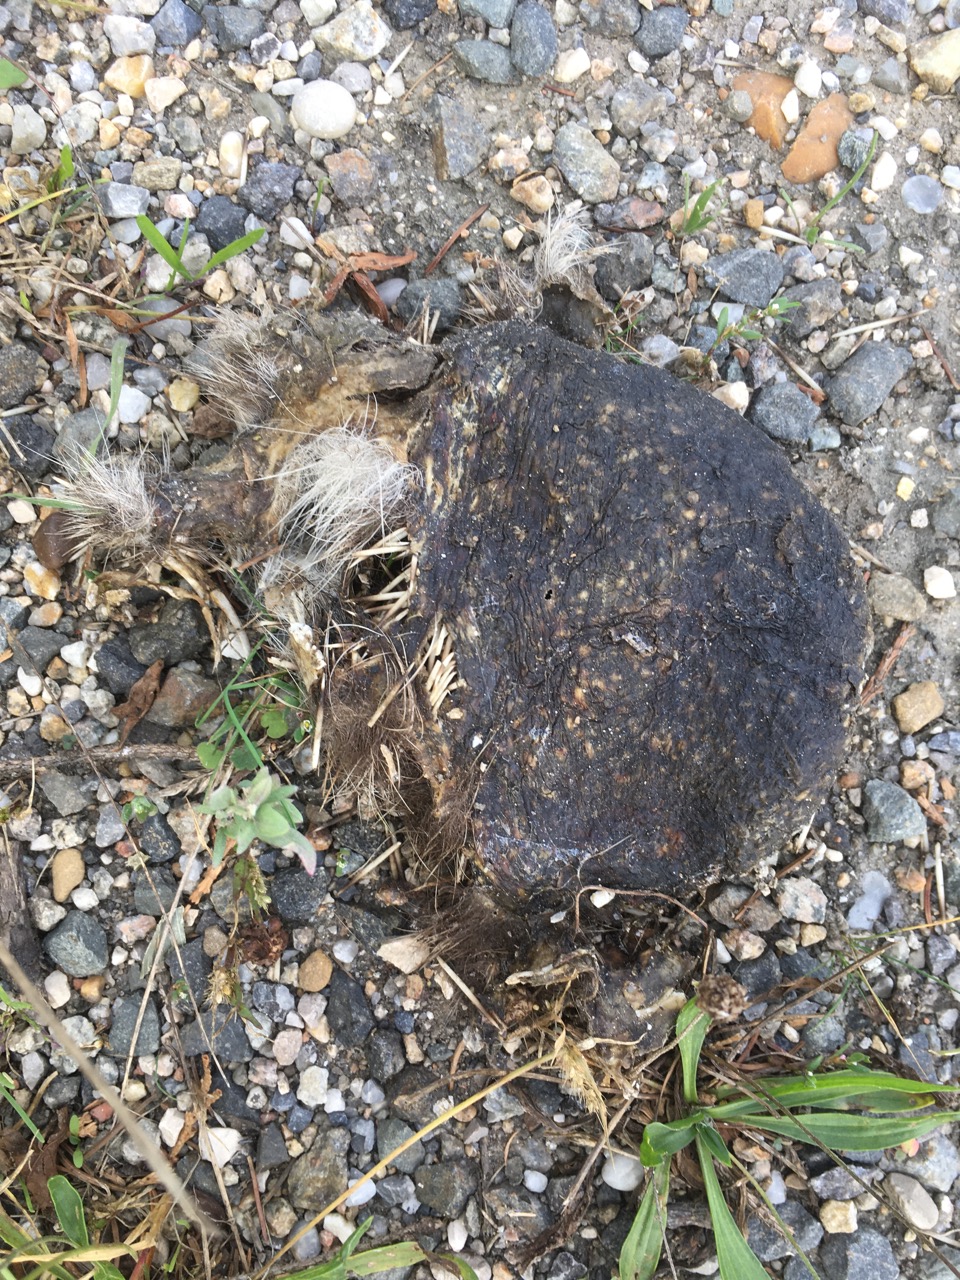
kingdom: Animalia
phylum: Chordata
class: Mammalia
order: Erinaceomorpha
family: Erinaceidae
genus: Erinaceus
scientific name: Erinaceus
